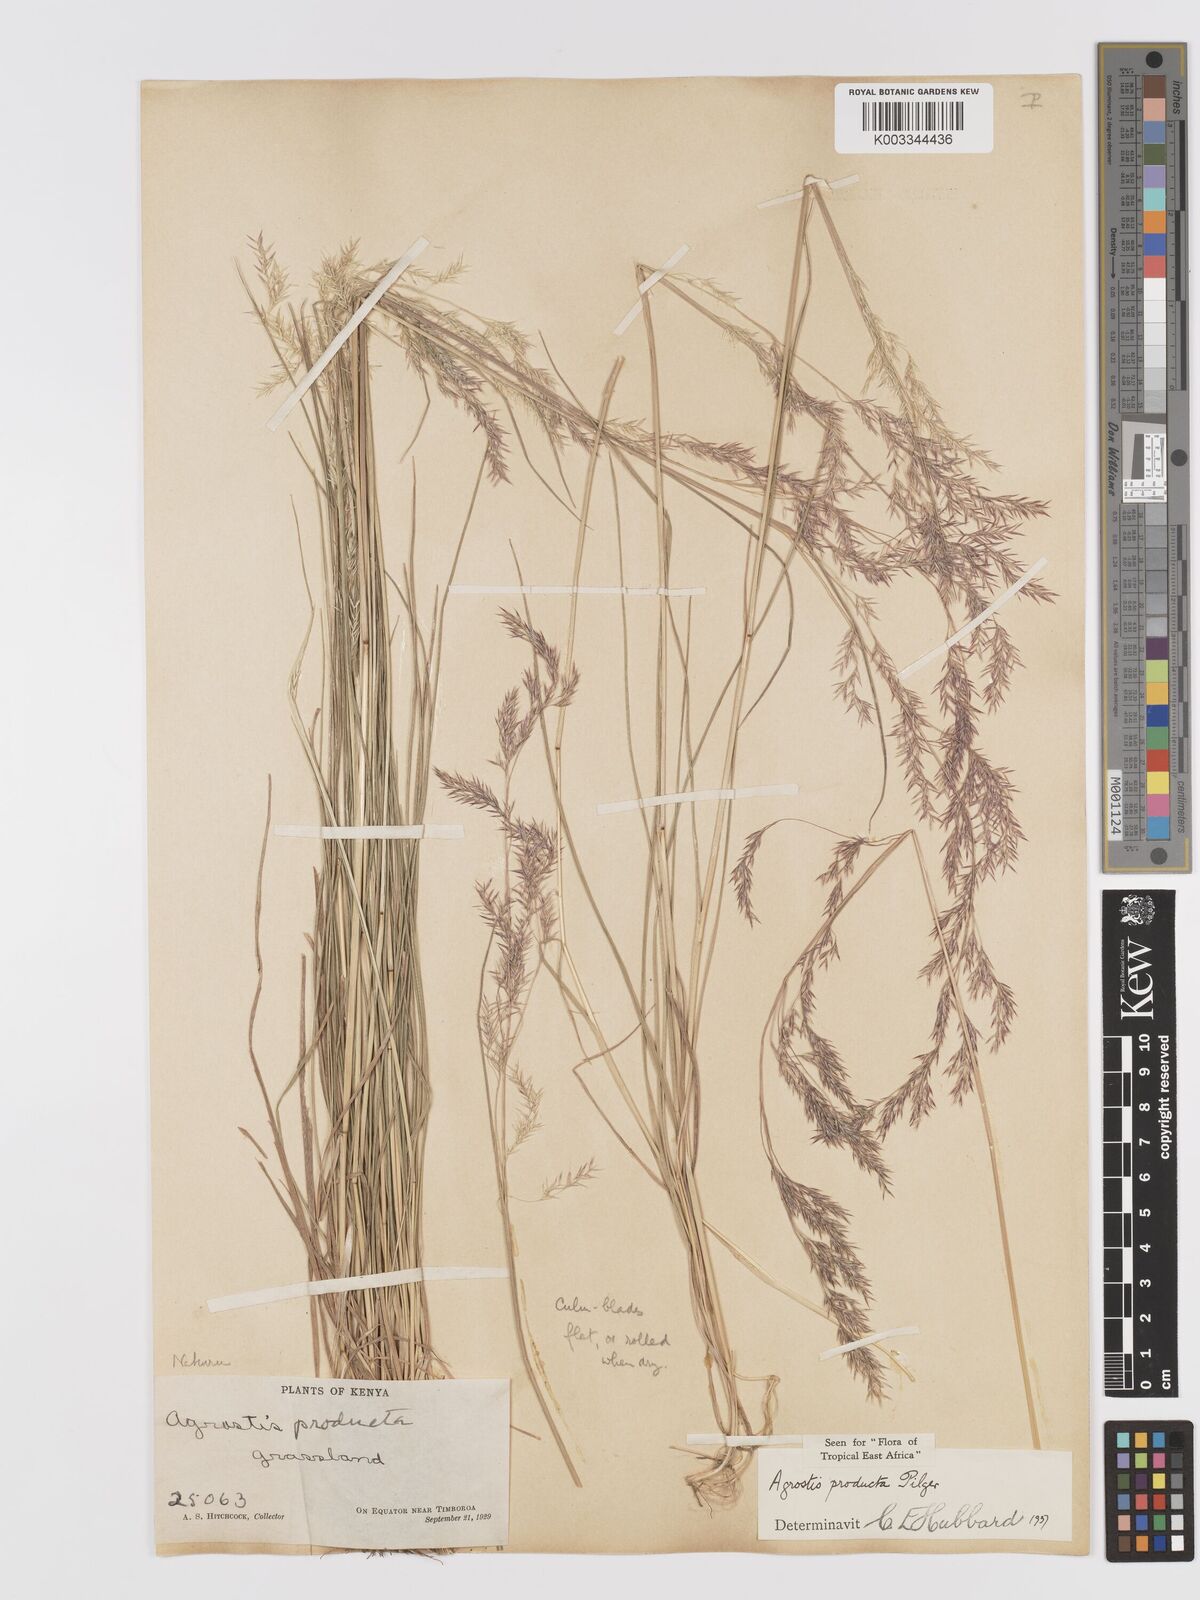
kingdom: Plantae
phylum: Tracheophyta
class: Liliopsida
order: Poales
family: Poaceae
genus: Agrostis
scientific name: Agrostis producta
